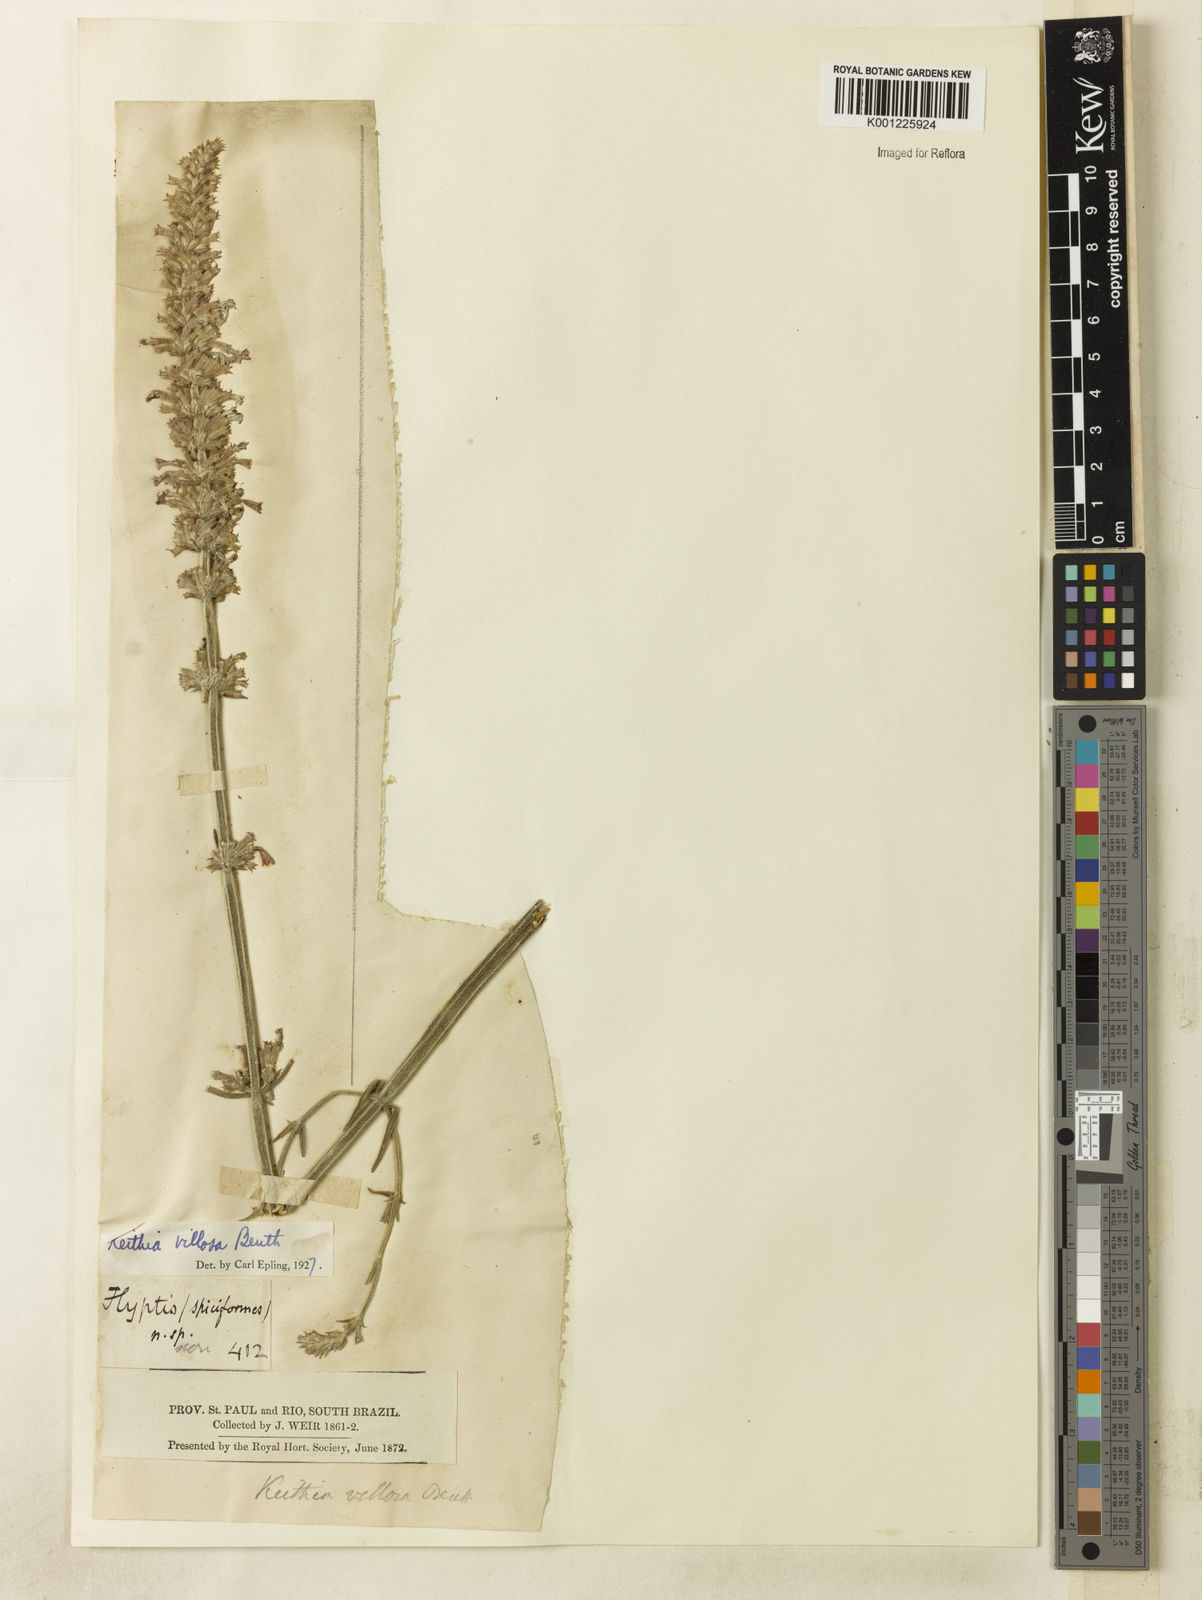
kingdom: Plantae
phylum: Tracheophyta
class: Magnoliopsida
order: Lamiales
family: Lamiaceae
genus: Rhabdocaulon
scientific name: Rhabdocaulon lavanduloides
